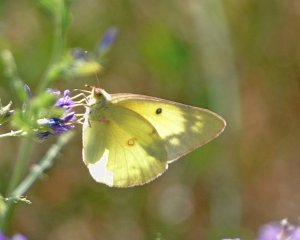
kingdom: Animalia
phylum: Arthropoda
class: Insecta
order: Lepidoptera
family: Pieridae
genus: Colias
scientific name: Colias philodice
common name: Clouded Sulphur
